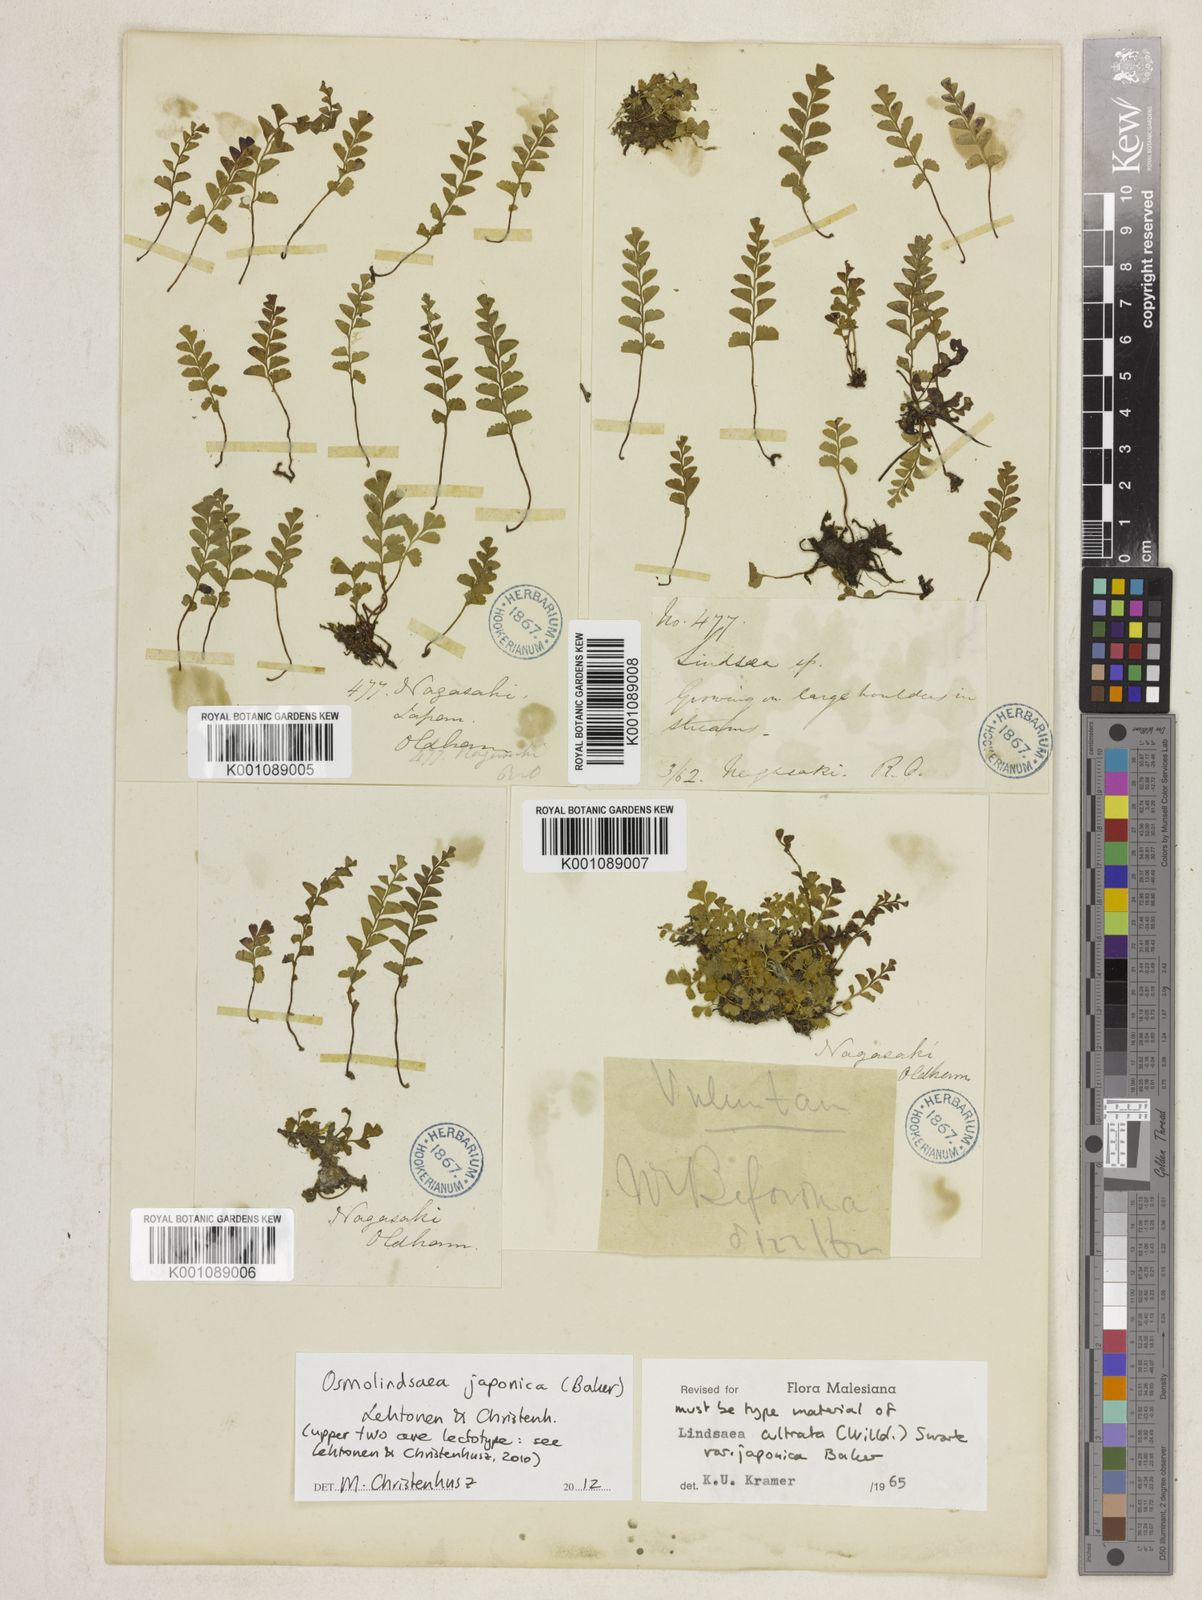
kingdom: Plantae
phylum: Tracheophyta
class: Polypodiopsida
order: Polypodiales
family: Lindsaeaceae
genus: Osmolindsaea
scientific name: Osmolindsaea japonica
